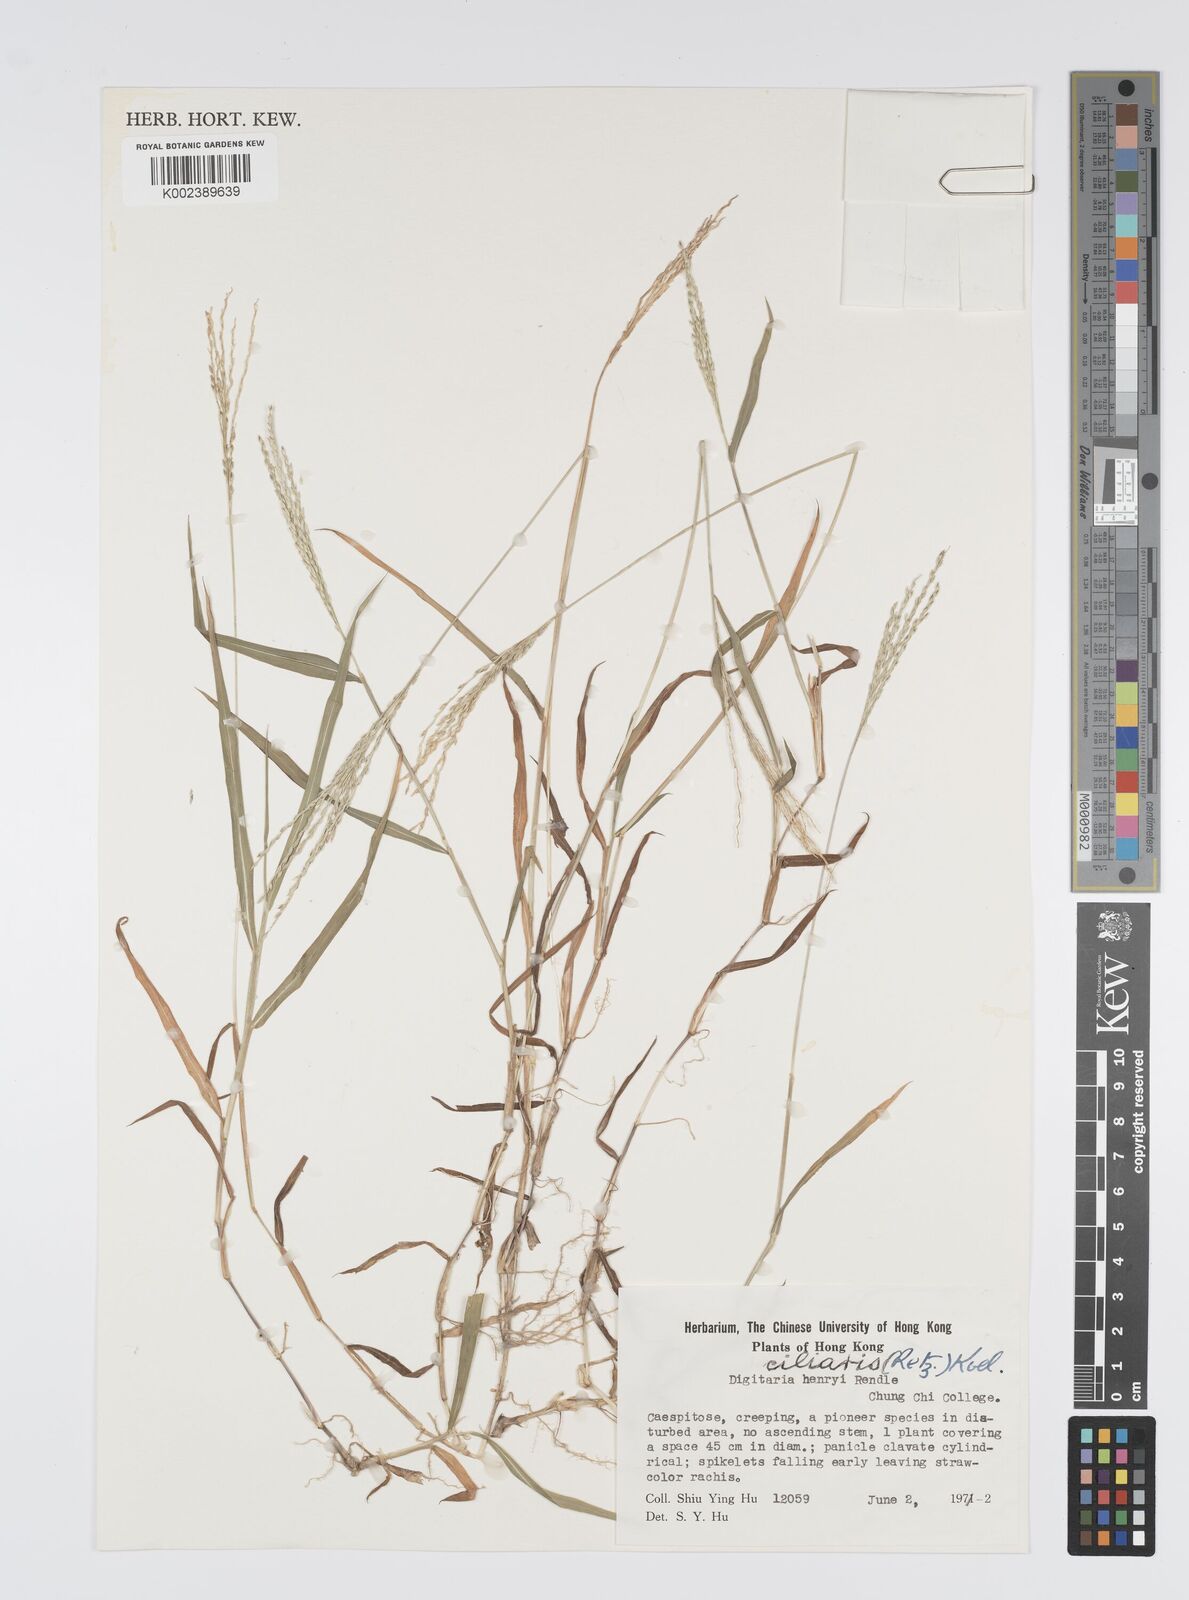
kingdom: Plantae
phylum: Tracheophyta
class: Liliopsida
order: Poales
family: Poaceae
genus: Digitaria
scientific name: Digitaria ciliaris
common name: Tropical finger-grass
